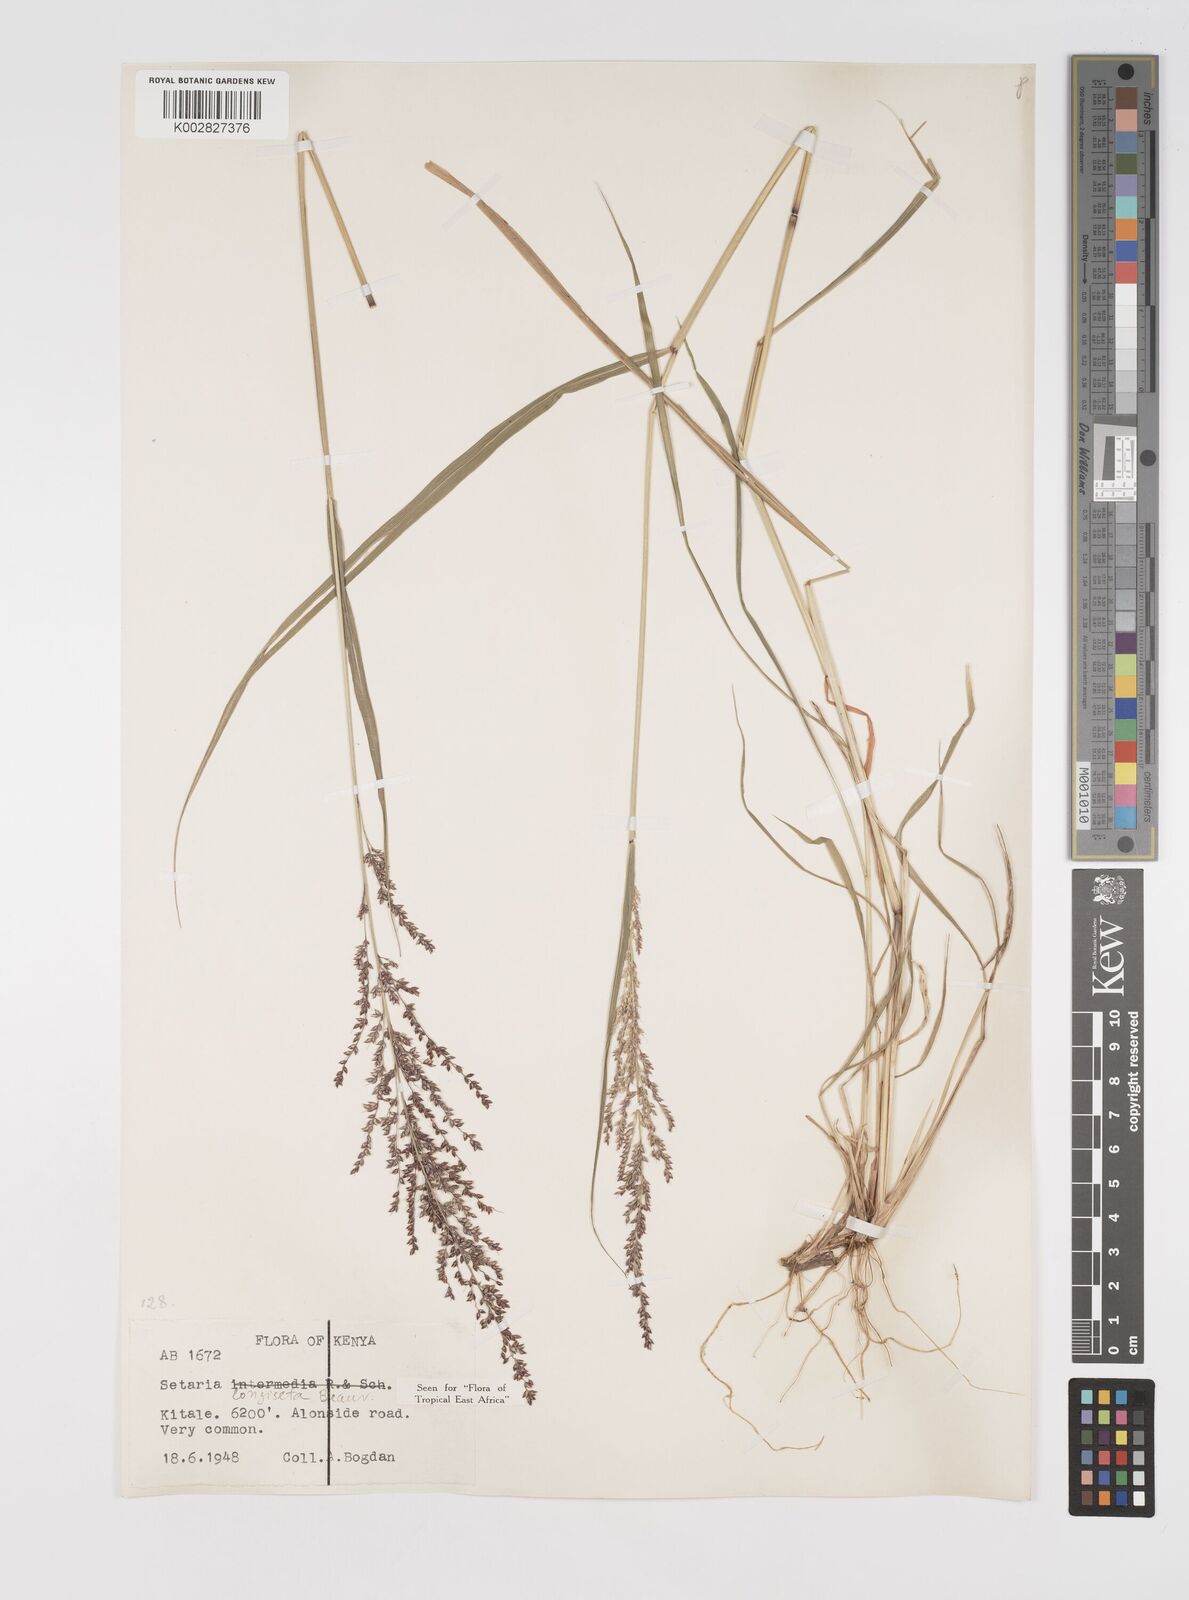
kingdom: Plantae
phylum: Tracheophyta
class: Liliopsida
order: Poales
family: Poaceae
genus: Setaria
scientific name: Setaria longiseta
